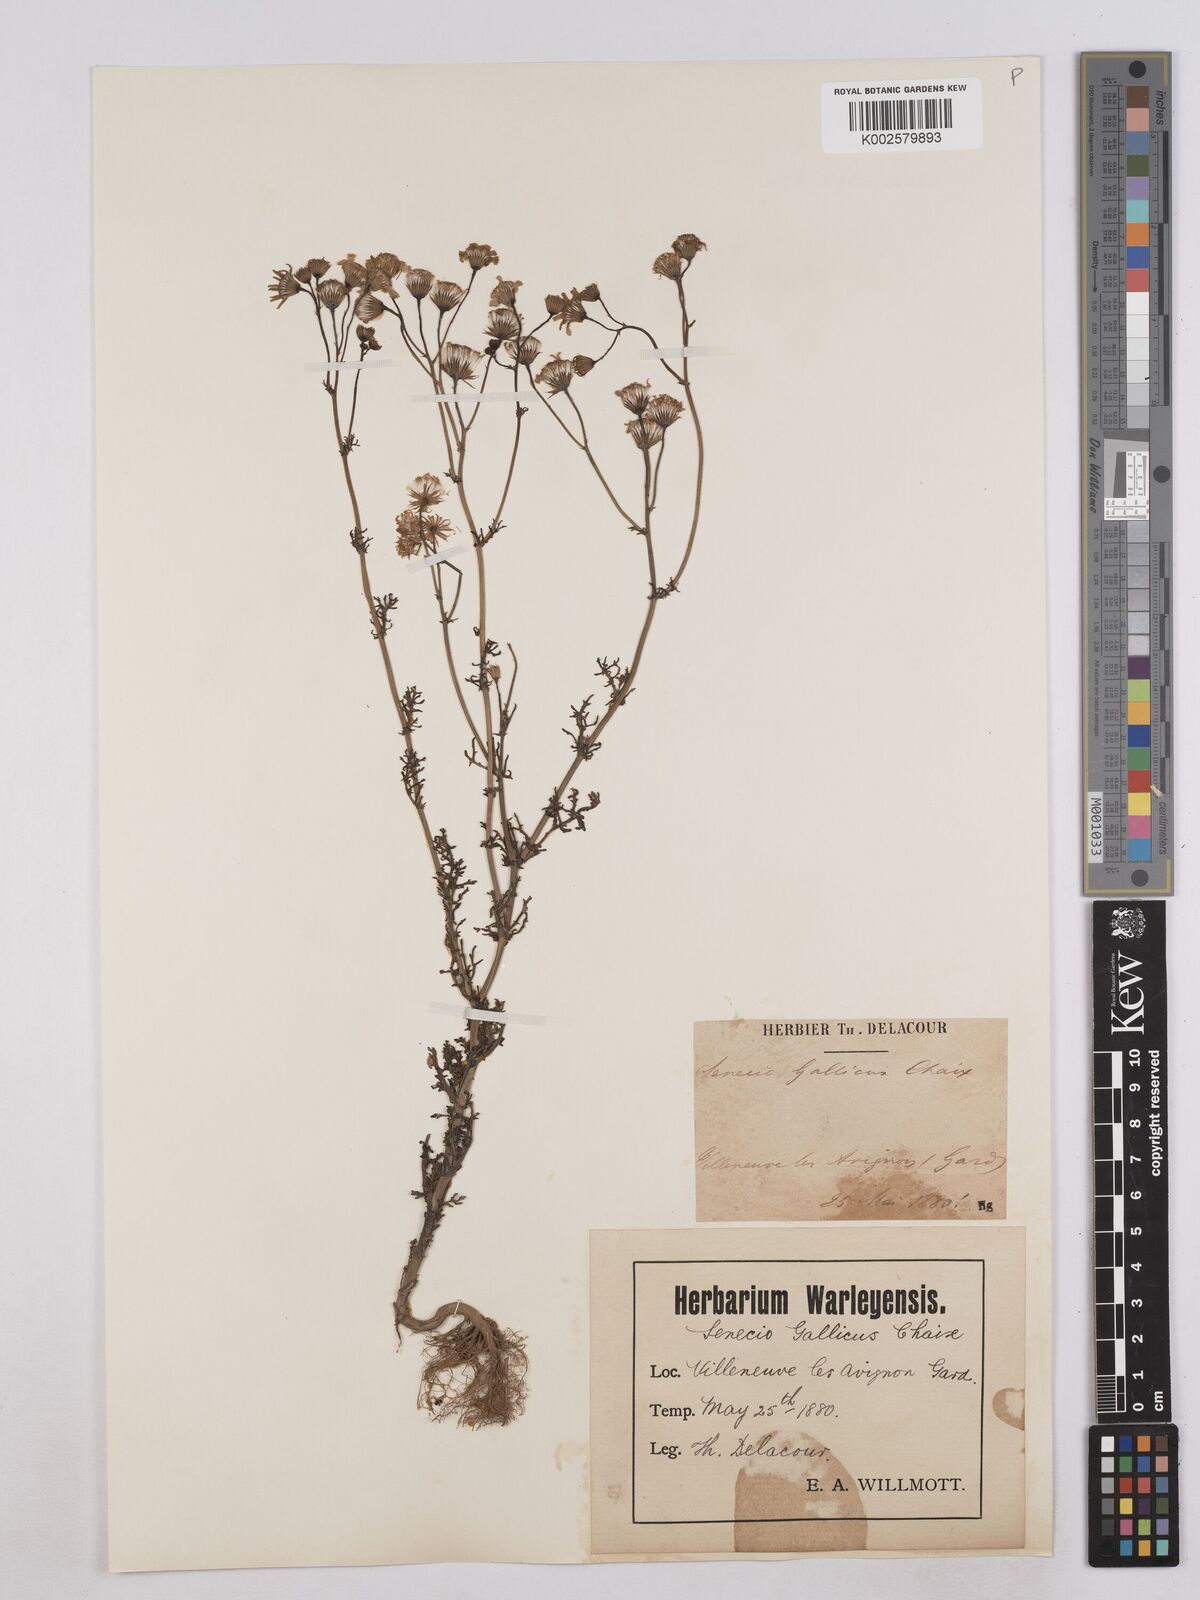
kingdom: Plantae
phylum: Tracheophyta
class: Magnoliopsida
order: Asterales
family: Asteraceae
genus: Senecio
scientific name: Senecio gallicus
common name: French groundsel
